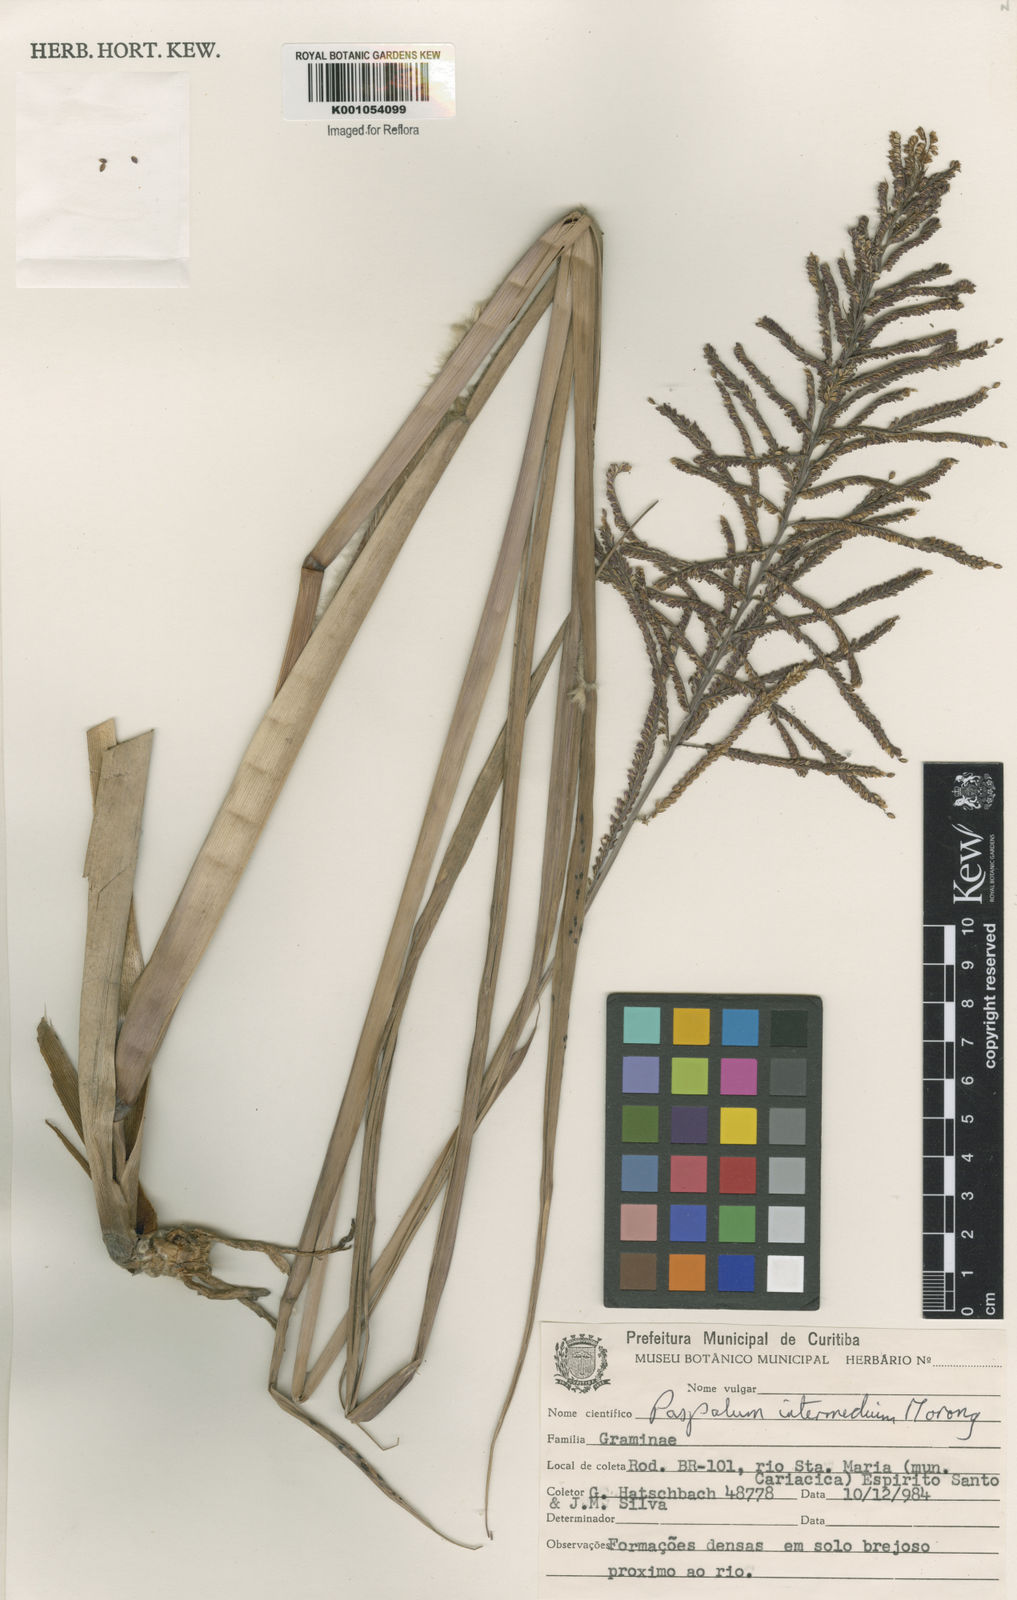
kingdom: Plantae
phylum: Tracheophyta
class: Liliopsida
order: Poales
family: Poaceae
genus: Paspalum
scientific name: Paspalum intermedium
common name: Intermediate paspalum
